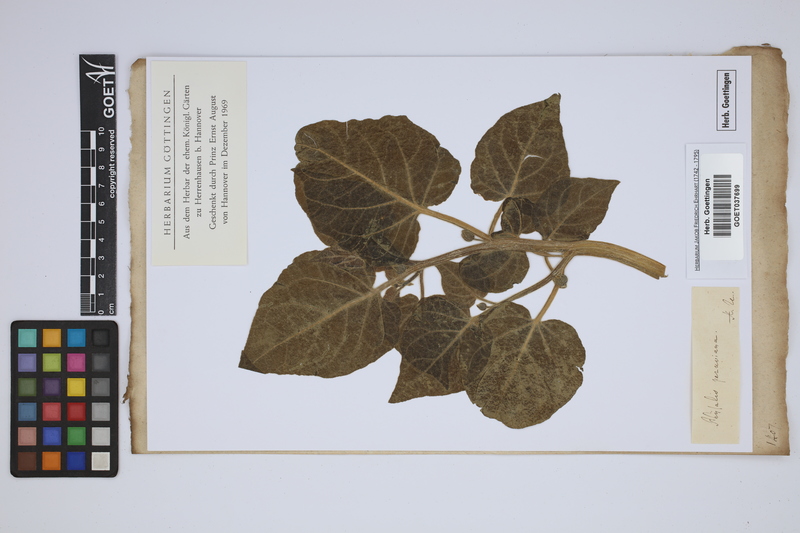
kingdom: Plantae
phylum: Tracheophyta
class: Magnoliopsida
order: Solanales
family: Solanaceae
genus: Physalis
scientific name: Physalis peruviana
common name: Cape-gooseberry
